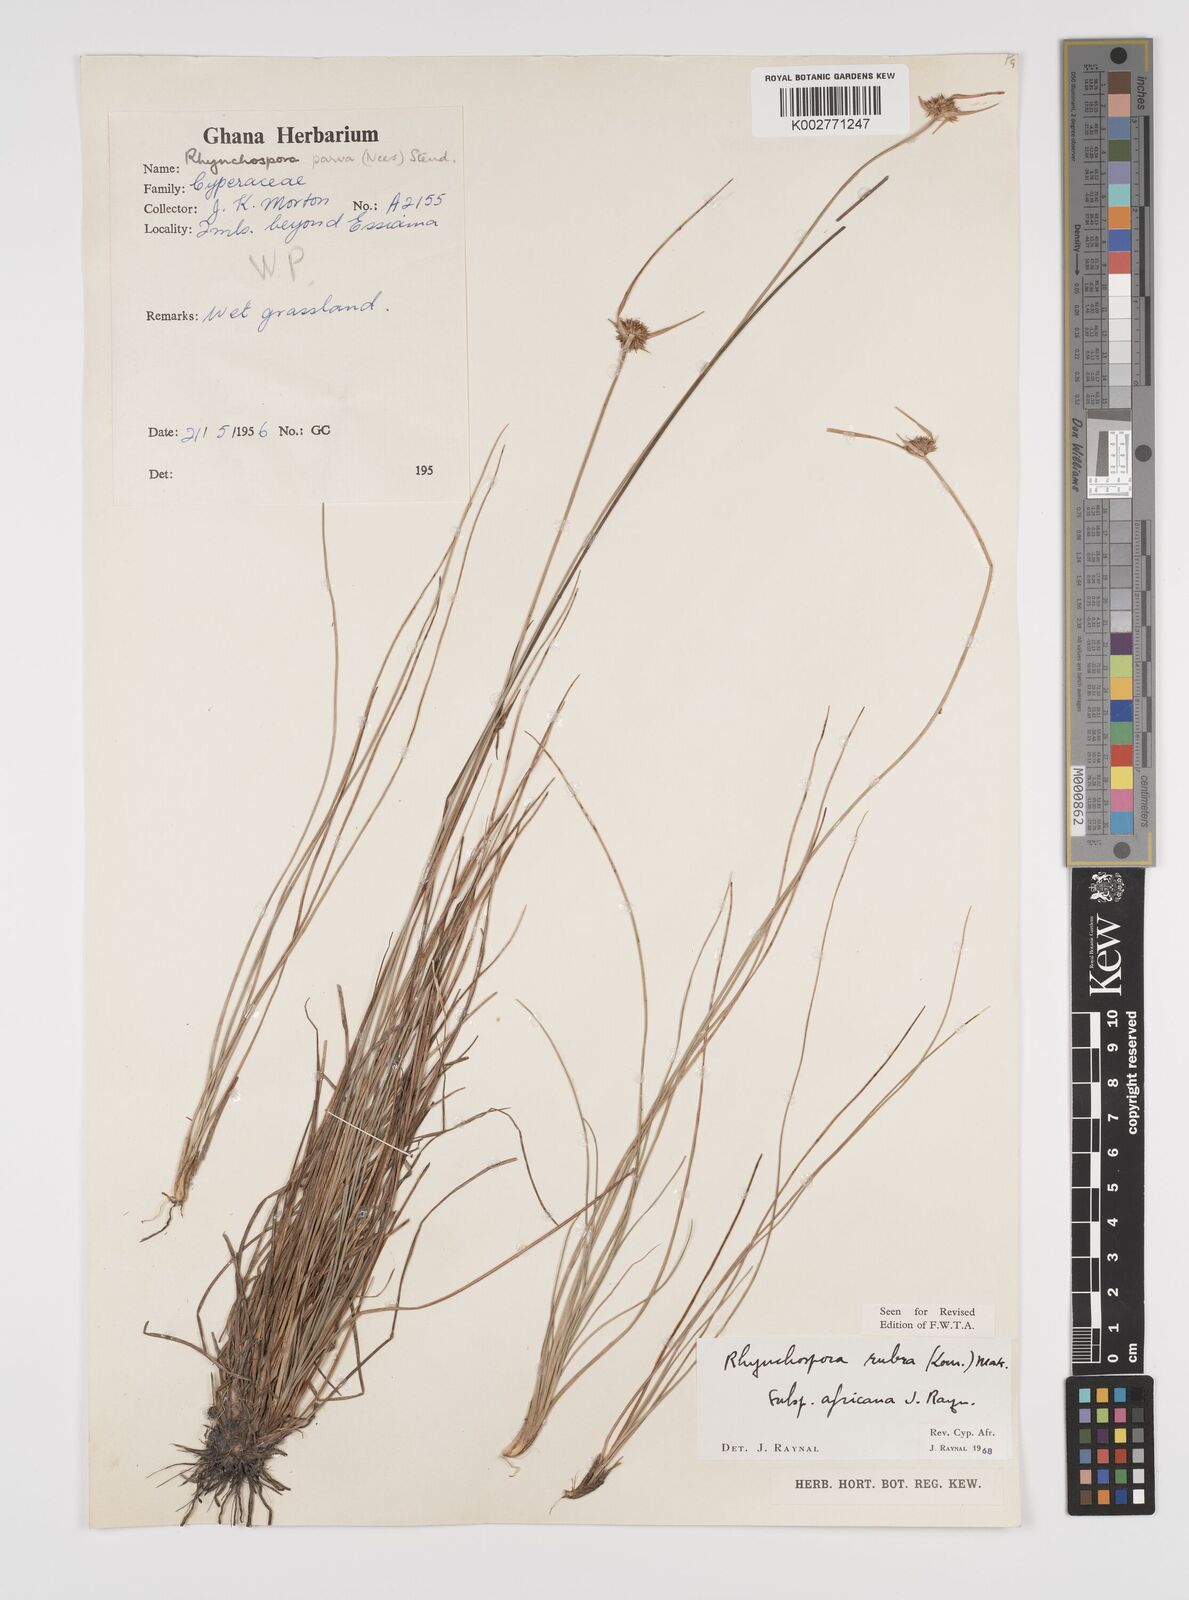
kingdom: Plantae
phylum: Tracheophyta
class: Liliopsida
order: Poales
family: Cyperaceae
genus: Rhynchospora
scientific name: Rhynchospora rubra
